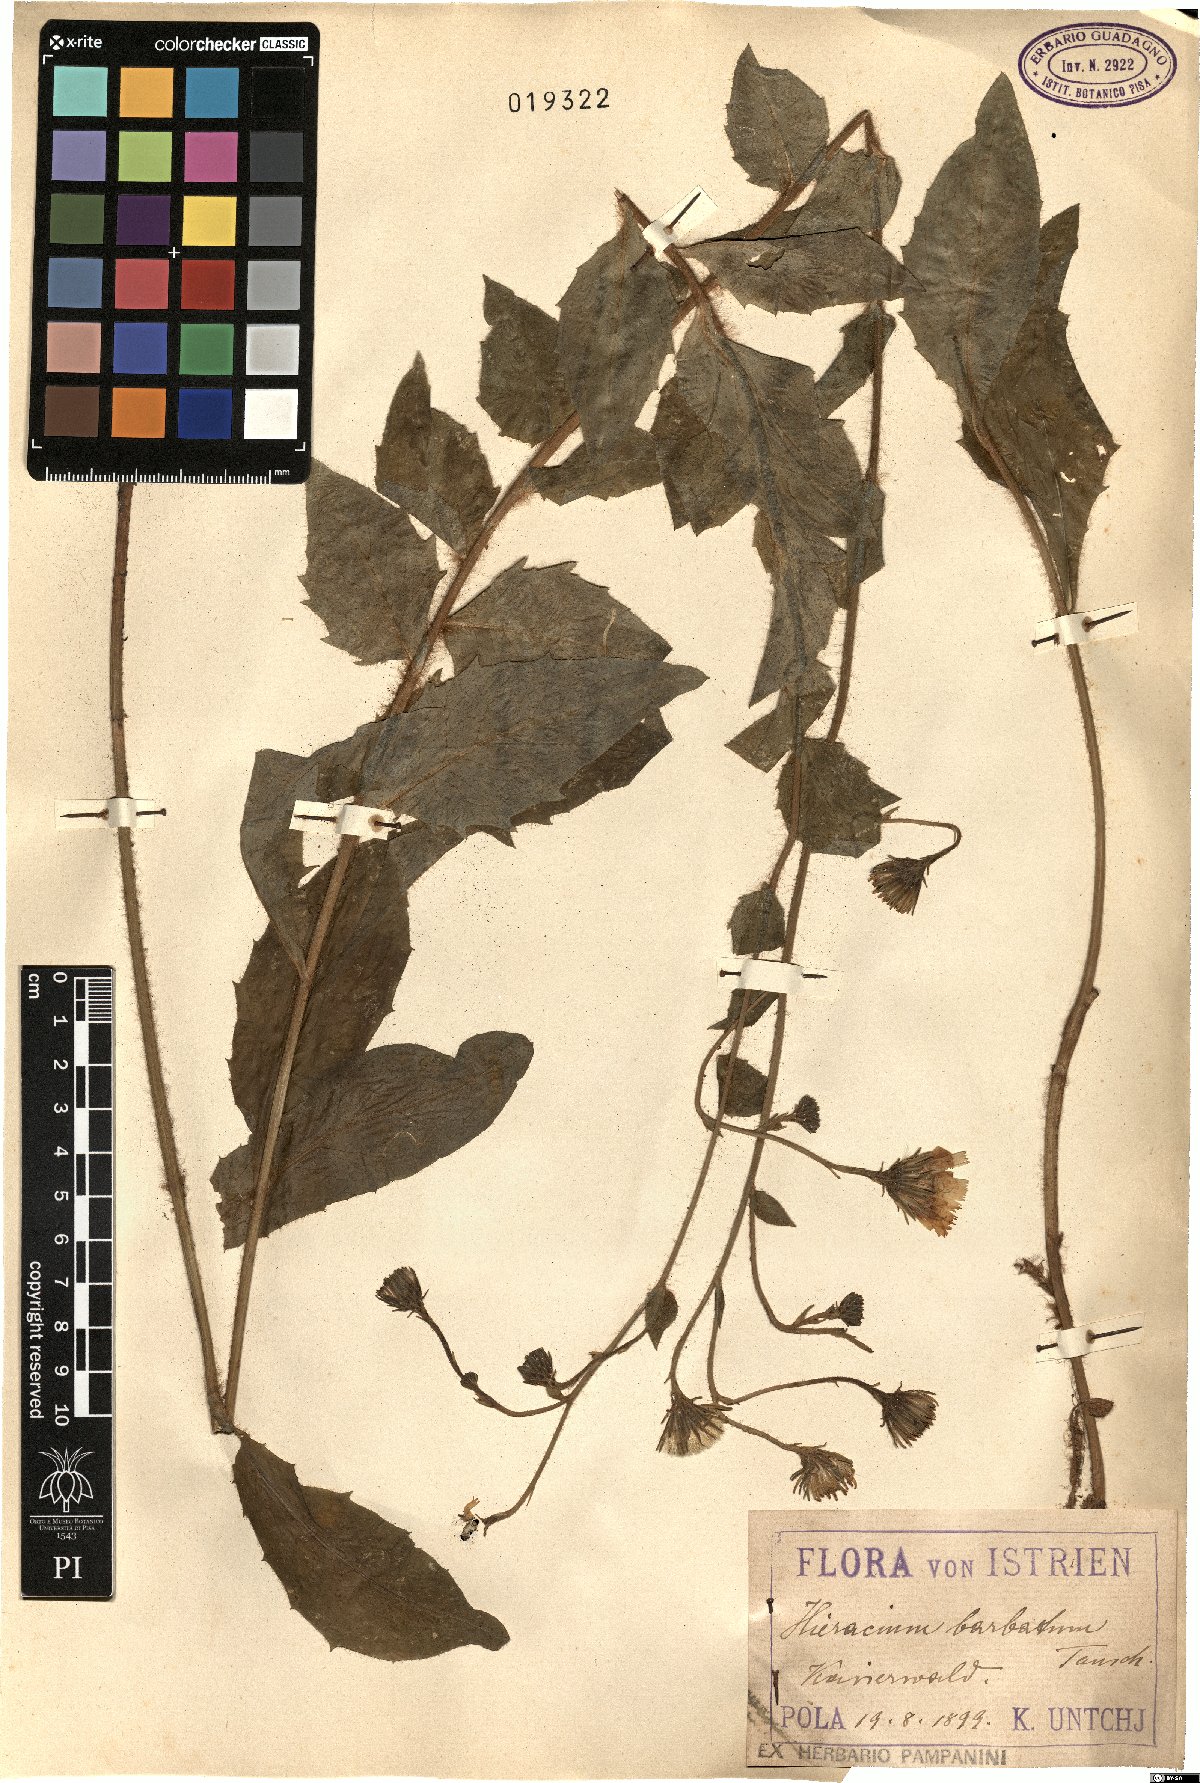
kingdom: Plantae
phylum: Tracheophyta
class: Magnoliopsida
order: Asterales
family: Asteraceae
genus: Hieracium
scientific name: Hieracium racemosum
